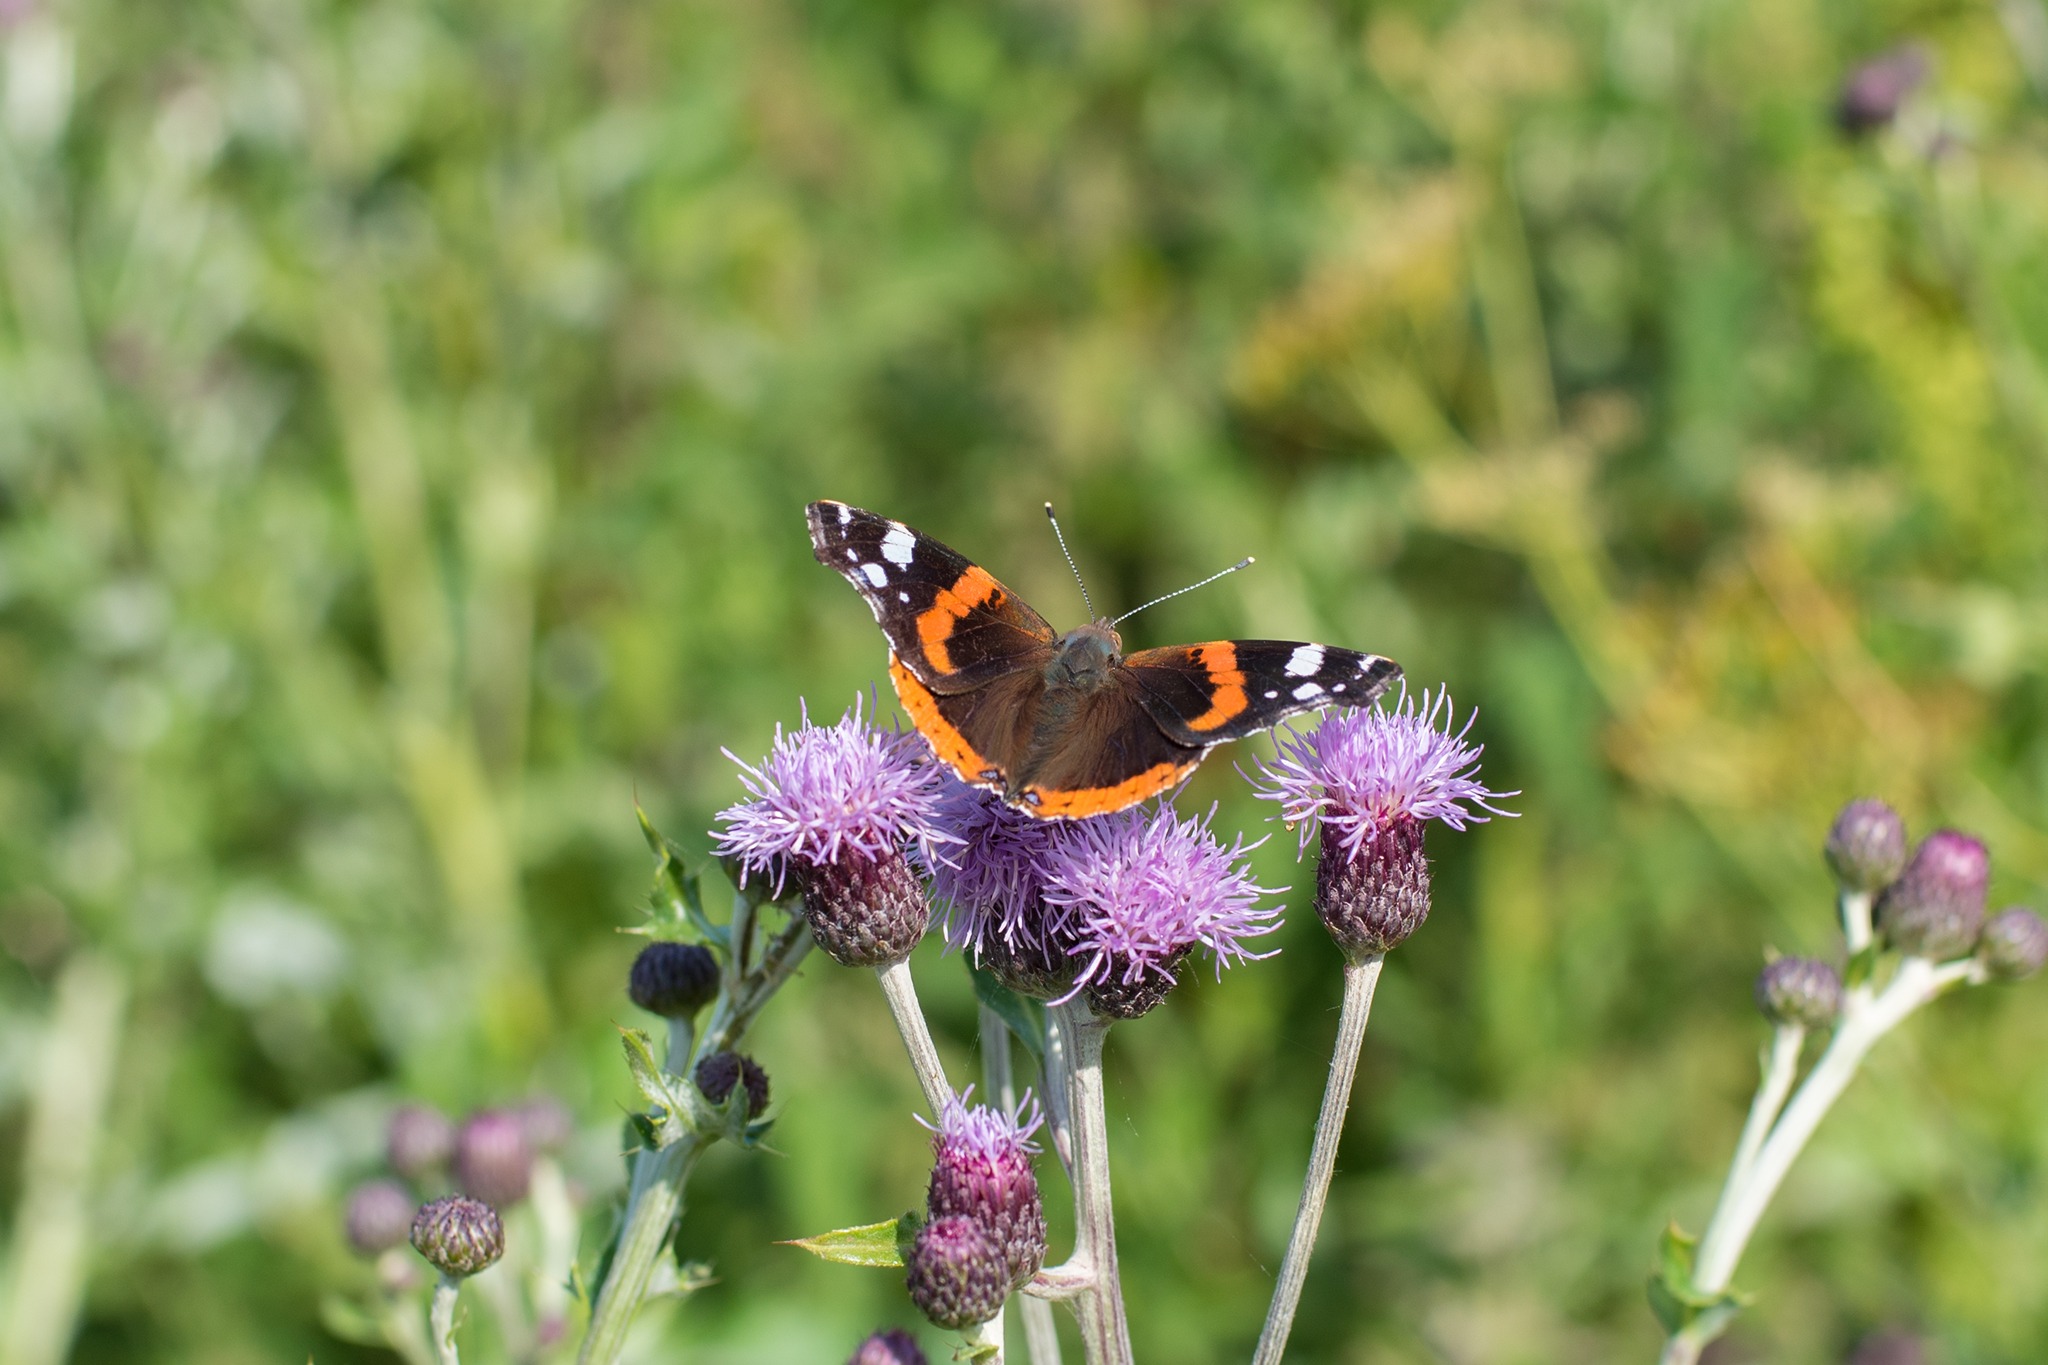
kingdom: Animalia
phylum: Arthropoda
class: Insecta
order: Lepidoptera
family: Nymphalidae
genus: Vanessa
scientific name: Vanessa atalanta
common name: Admiral
